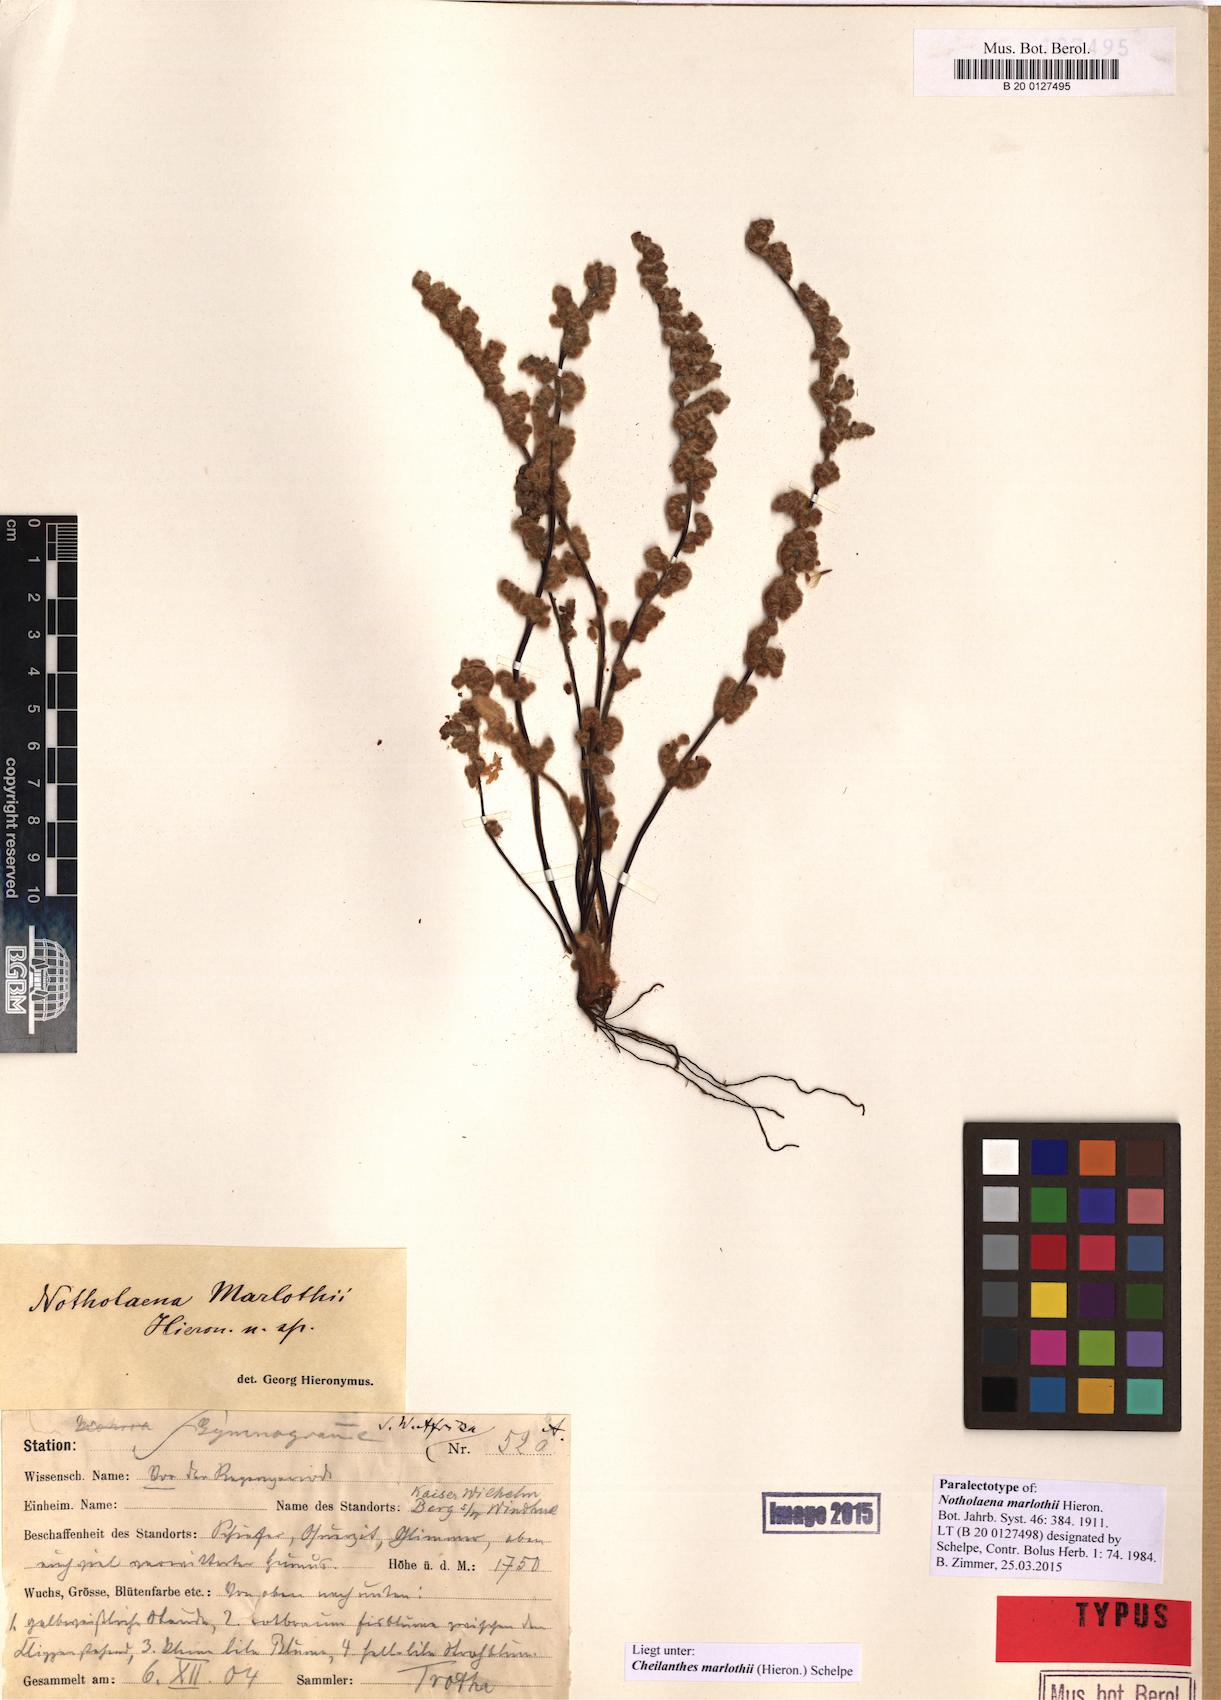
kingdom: Plantae
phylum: Tracheophyta
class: Polypodiopsida
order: Polypodiales
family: Pteridaceae
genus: Cheilanthes
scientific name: Cheilanthes marlothii
